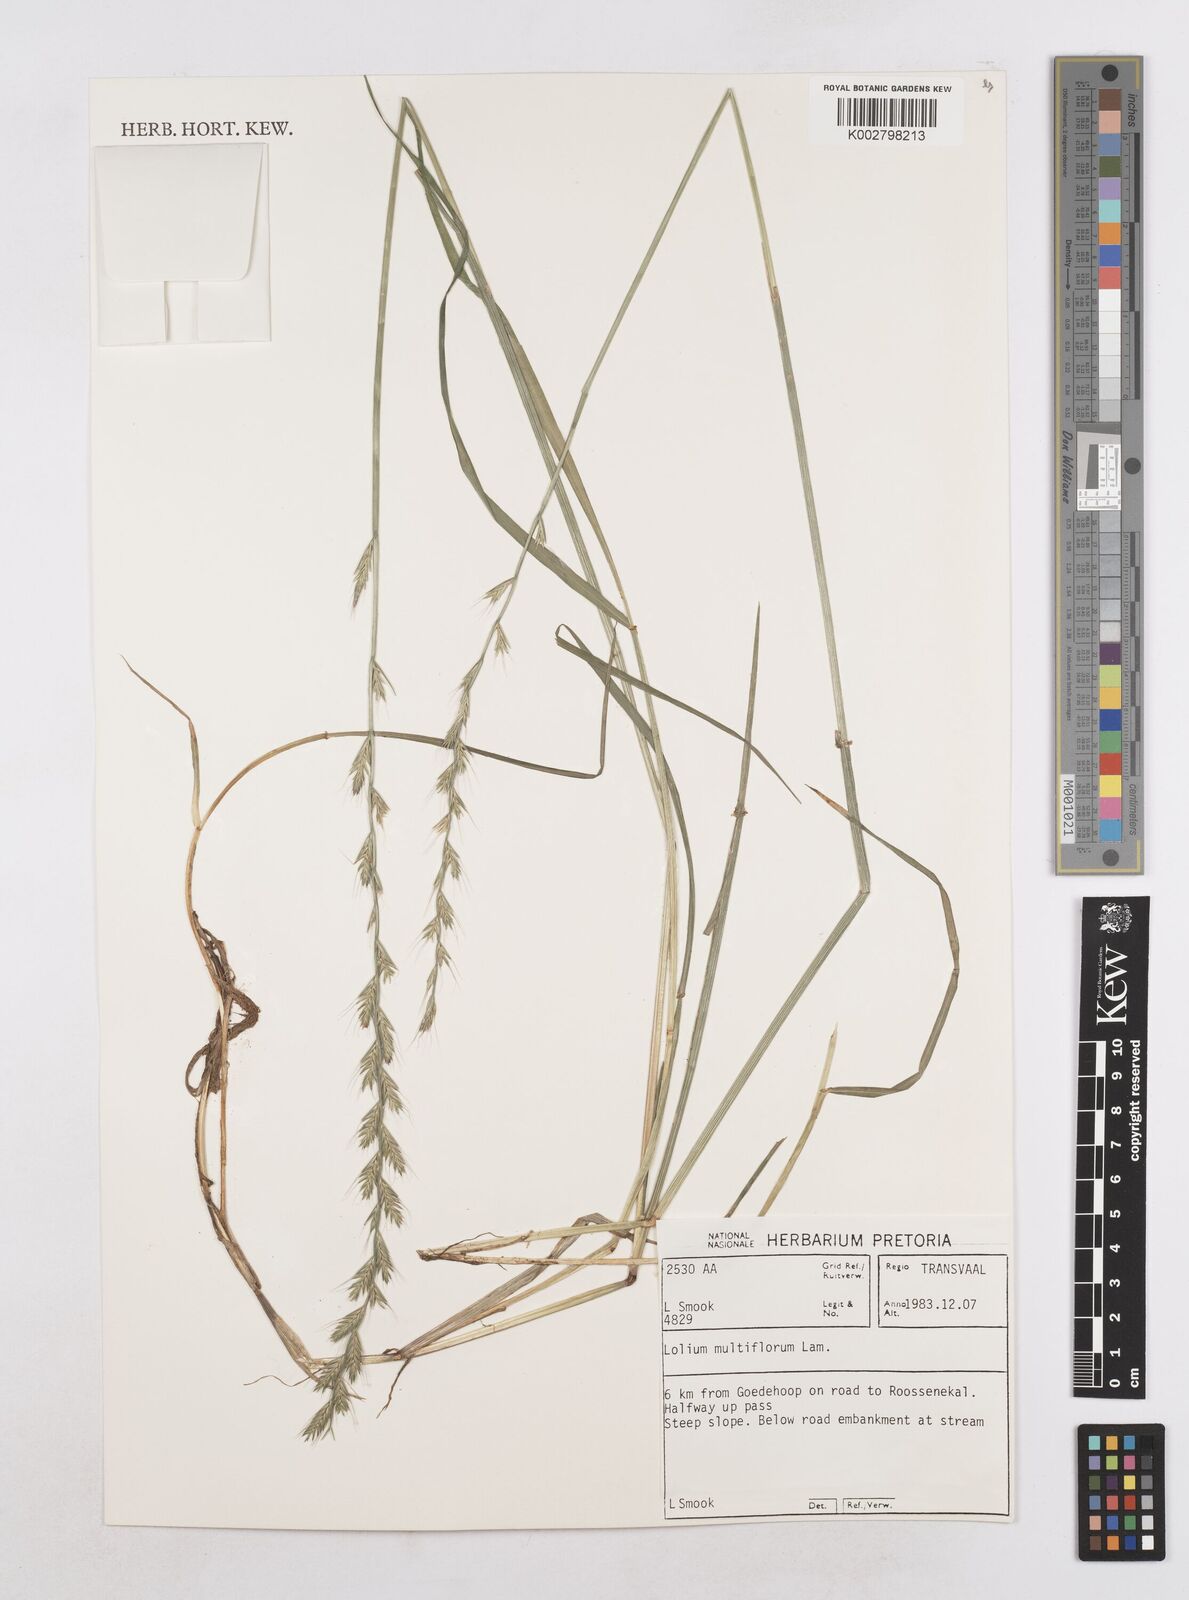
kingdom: Plantae
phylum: Tracheophyta
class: Liliopsida
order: Poales
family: Poaceae
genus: Lolium
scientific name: Lolium multiflorum
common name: Annual ryegrass
